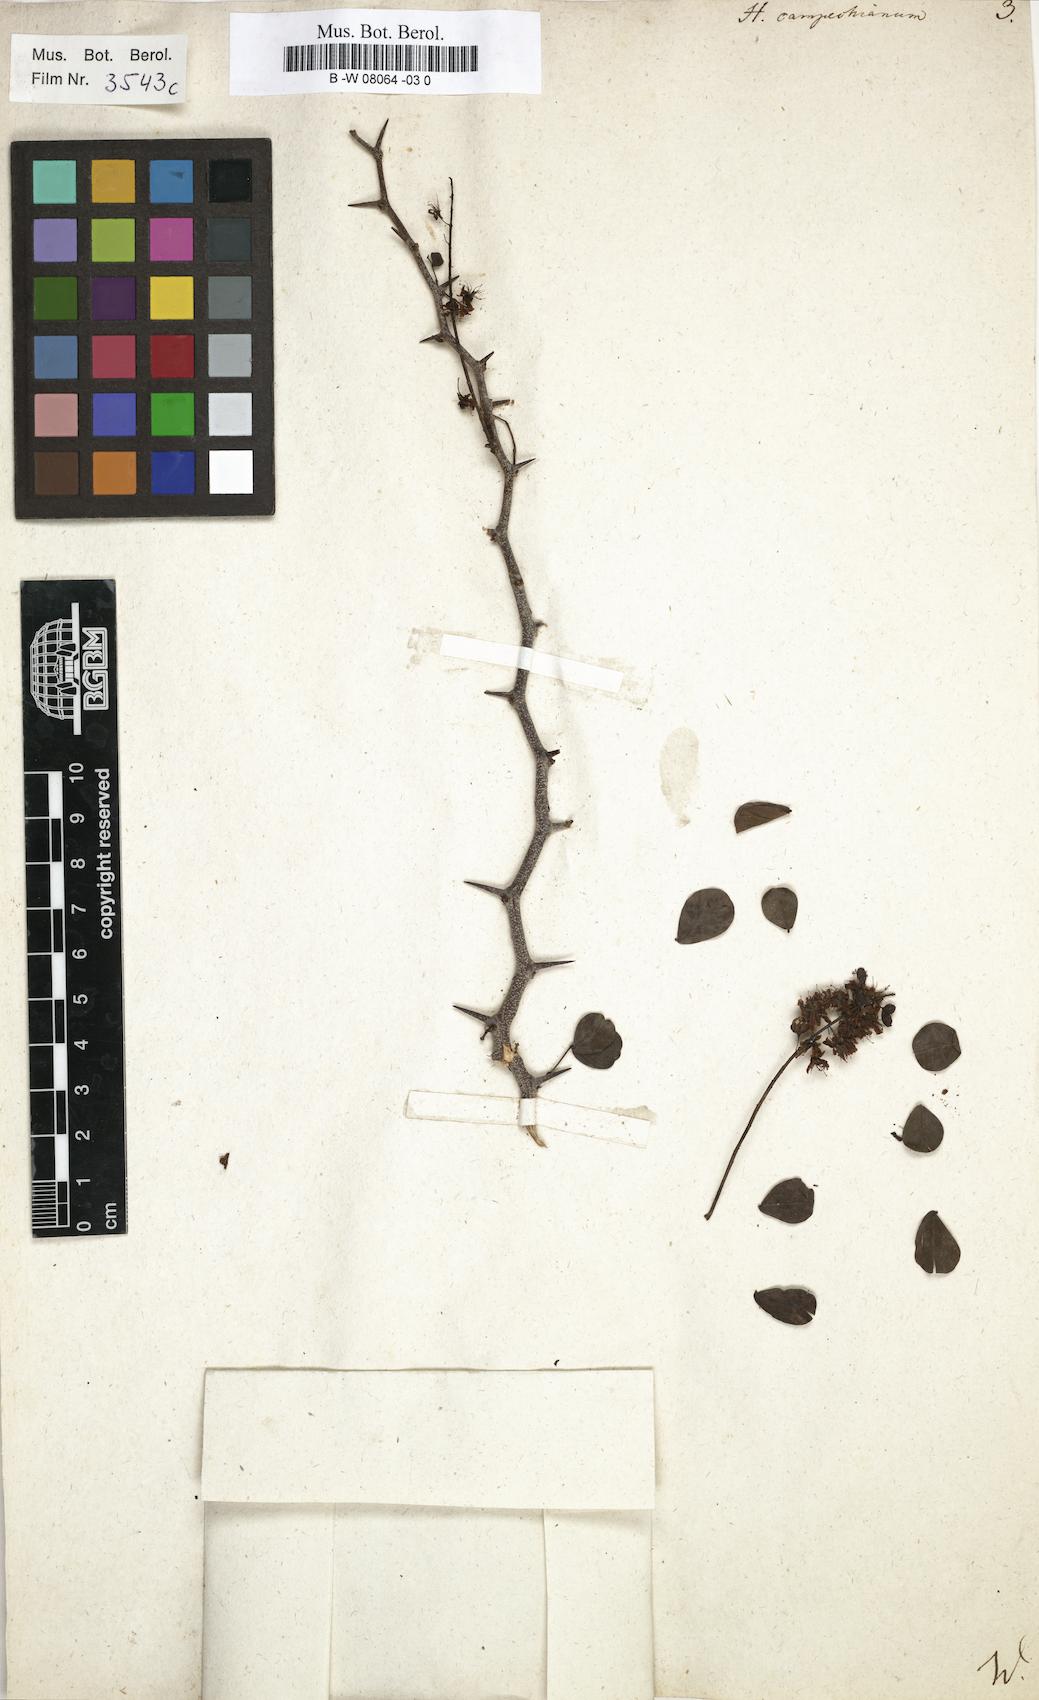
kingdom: Plantae
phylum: Tracheophyta
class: Magnoliopsida
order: Fabales
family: Fabaceae
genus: Haematoxylum
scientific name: Haematoxylum campechianum
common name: Logwood
